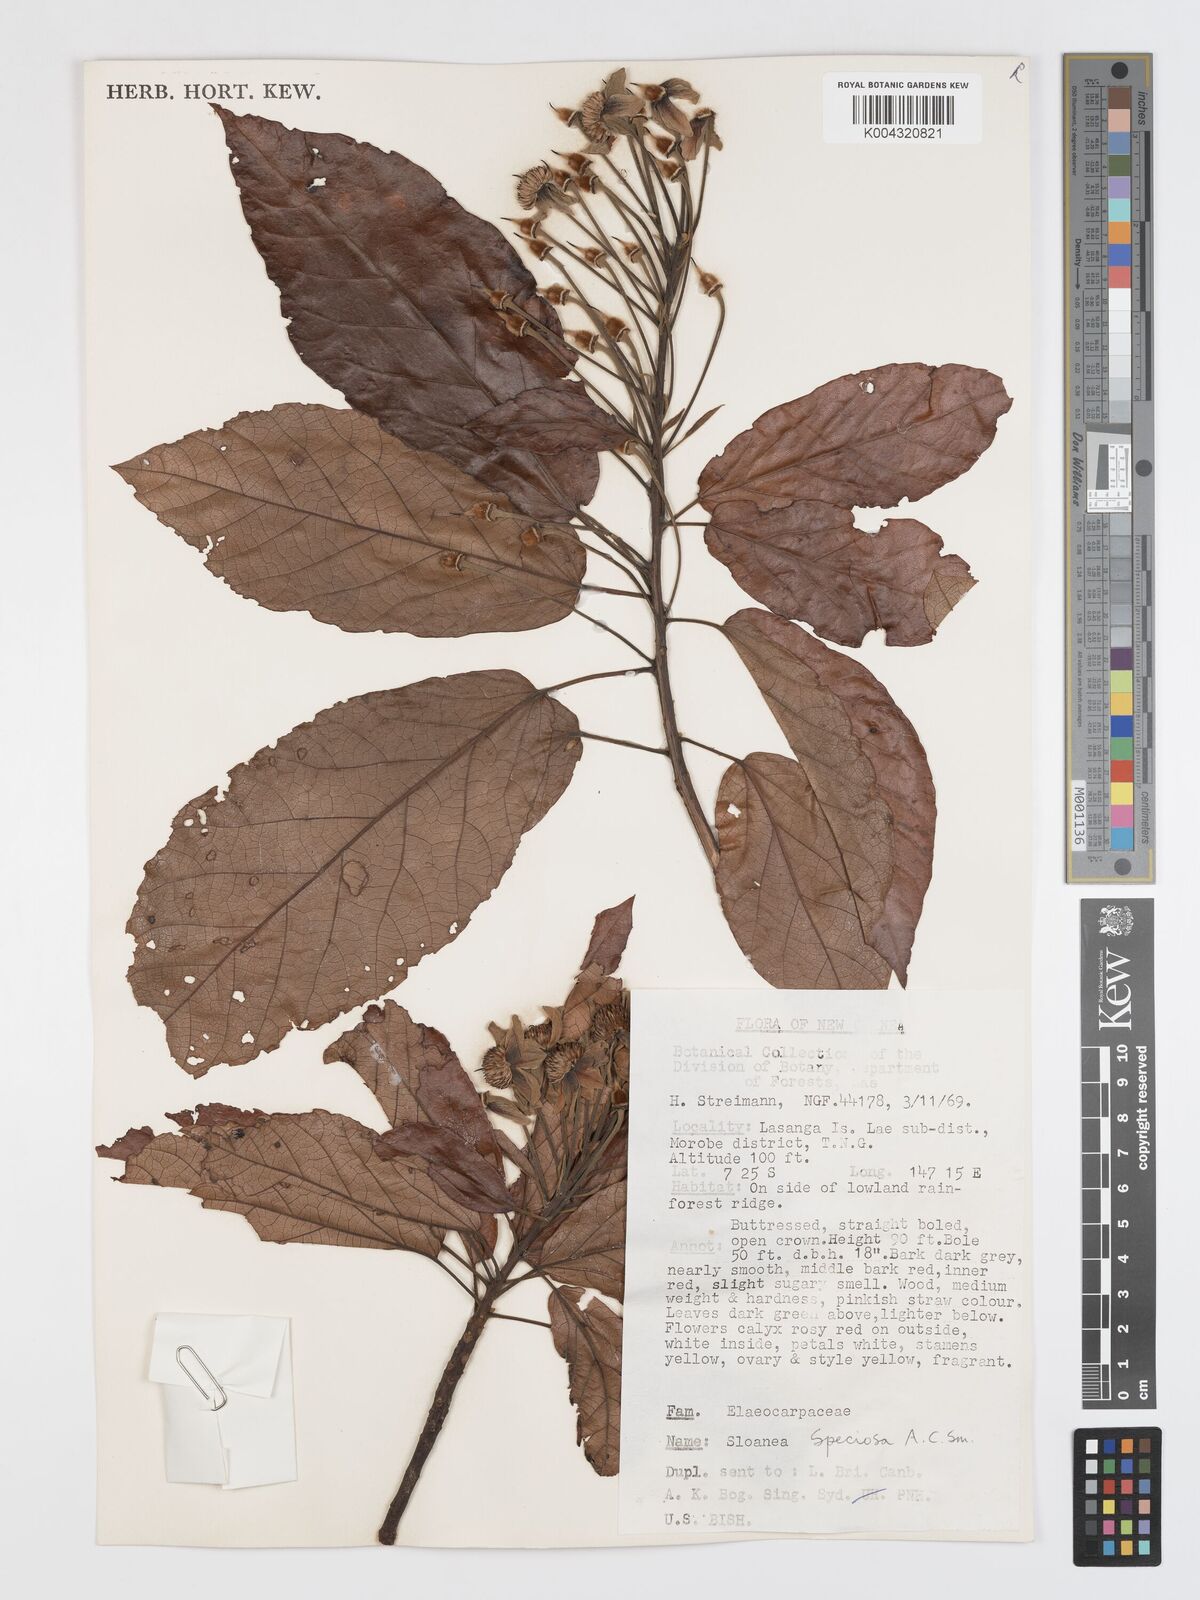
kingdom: Plantae
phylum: Tracheophyta
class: Magnoliopsida
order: Oxalidales
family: Elaeocarpaceae
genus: Sloanea
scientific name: Sloanea aculeata
